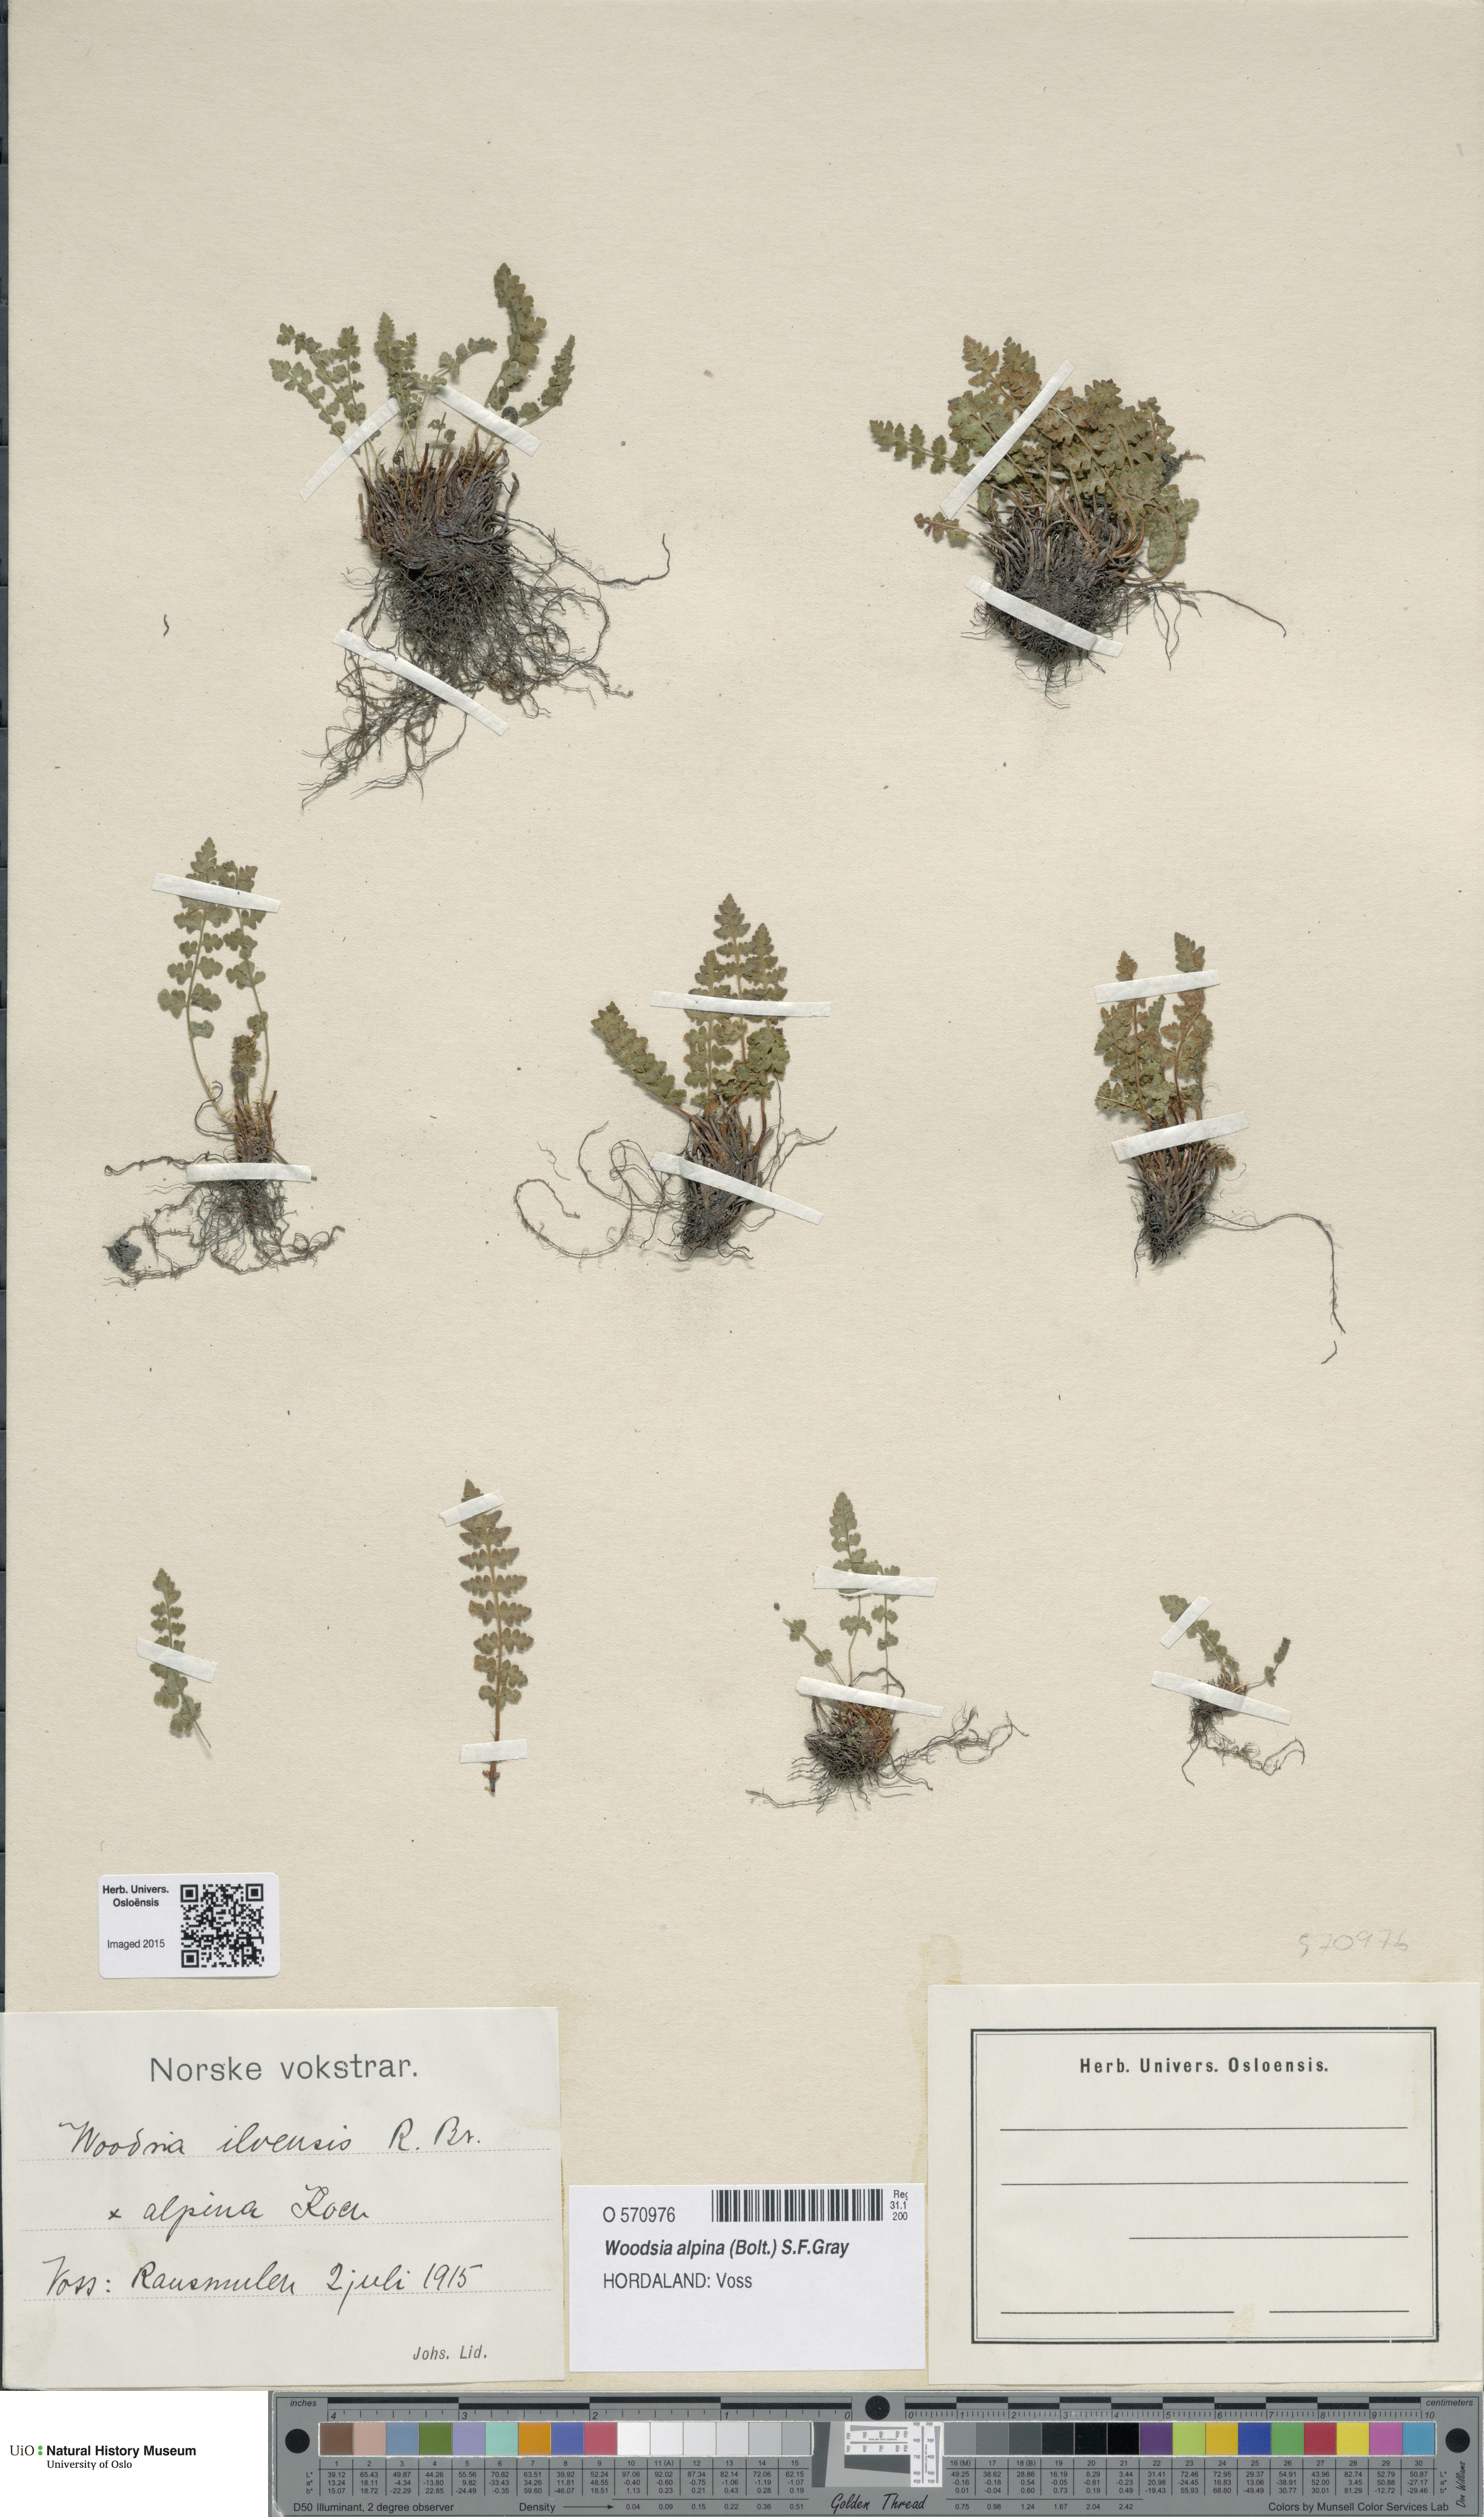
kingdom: Plantae
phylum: Tracheophyta
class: Polypodiopsida
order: Polypodiales
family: Woodsiaceae
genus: Woodsia
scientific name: Woodsia alpina
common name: Alpine woodsia
